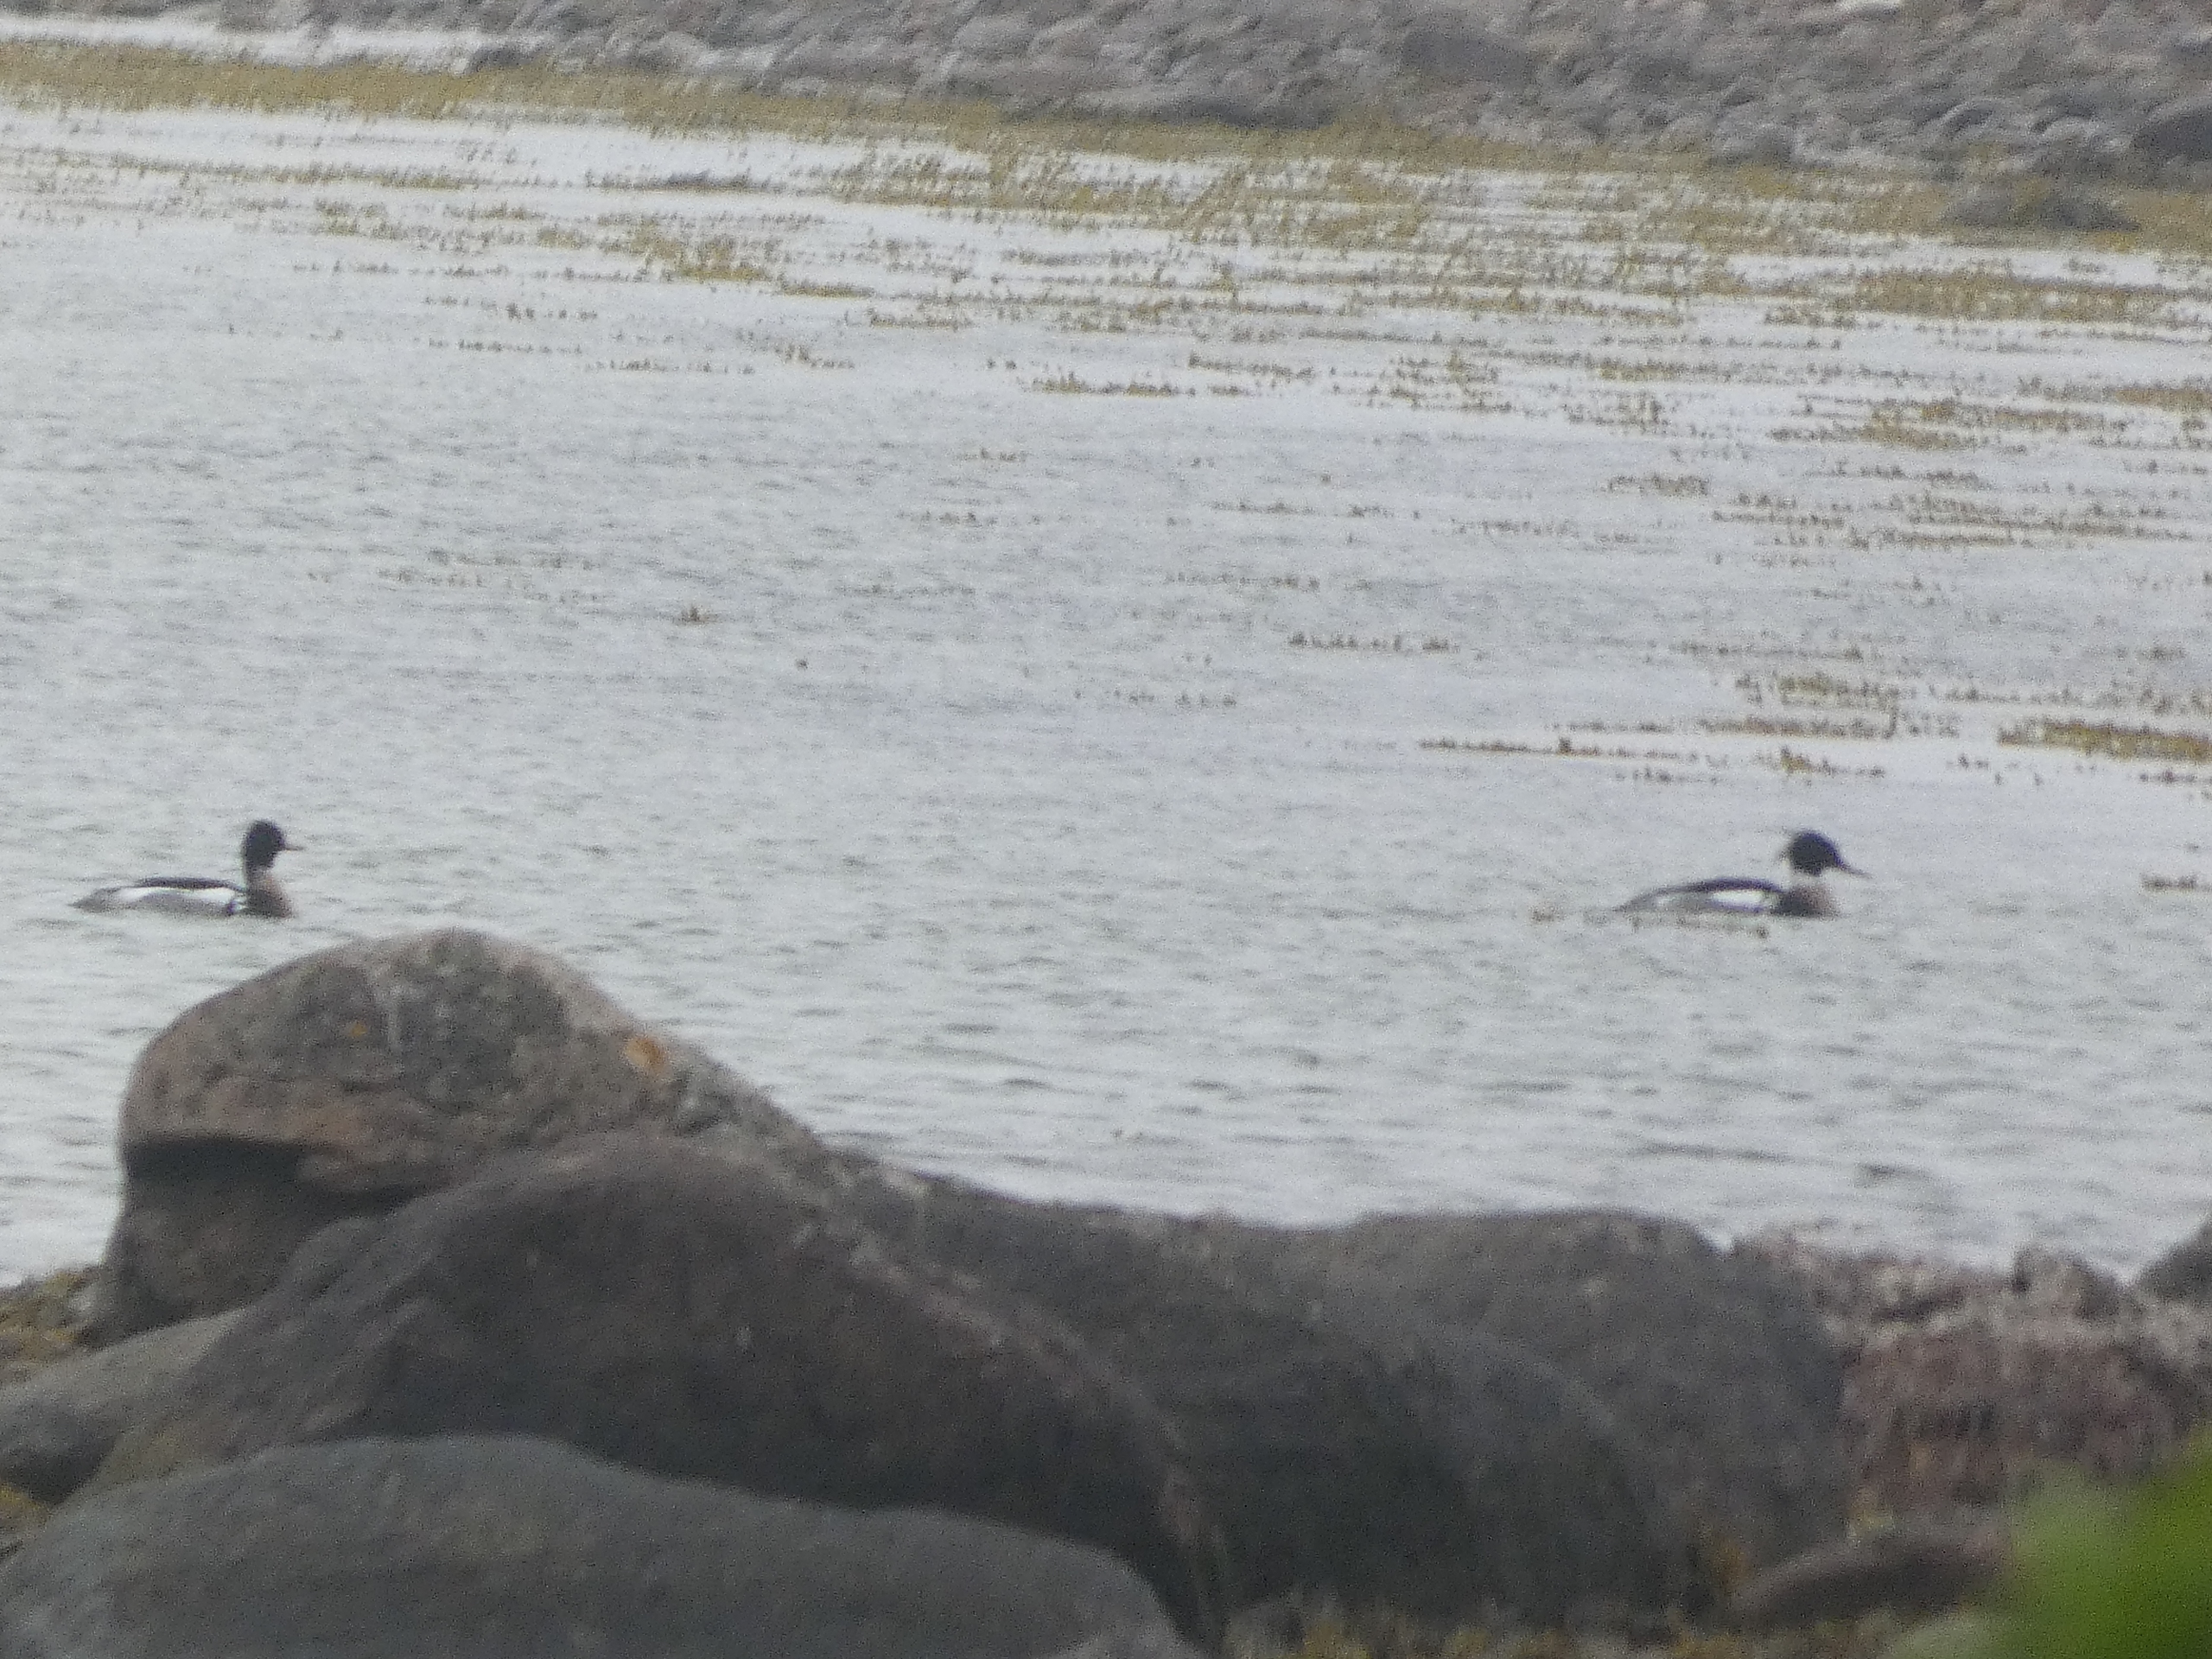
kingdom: Animalia
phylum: Chordata
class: Aves
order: Anseriformes
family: Anatidae
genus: Mergus
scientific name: Mergus serrator
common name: Toppet skallesluger
